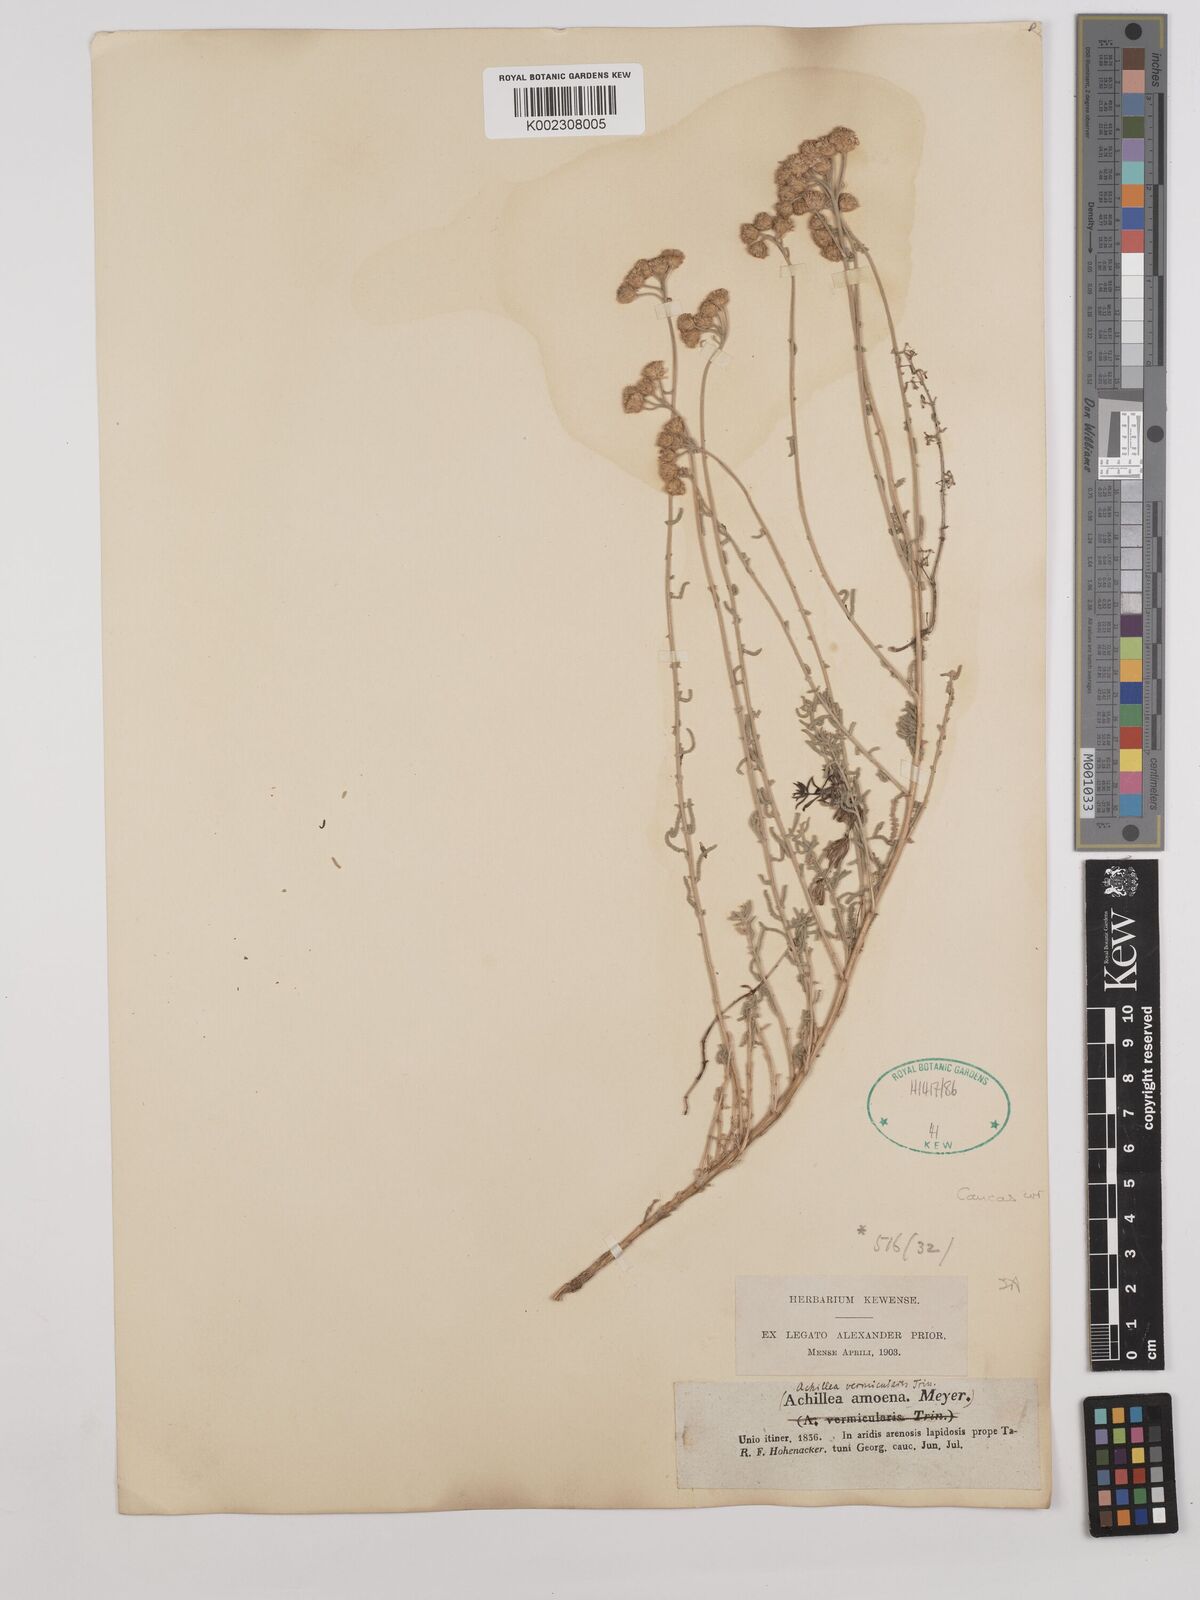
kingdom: Plantae
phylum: Tracheophyta
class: Magnoliopsida
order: Asterales
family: Asteraceae
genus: Achillea
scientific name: Achillea vermicularis
